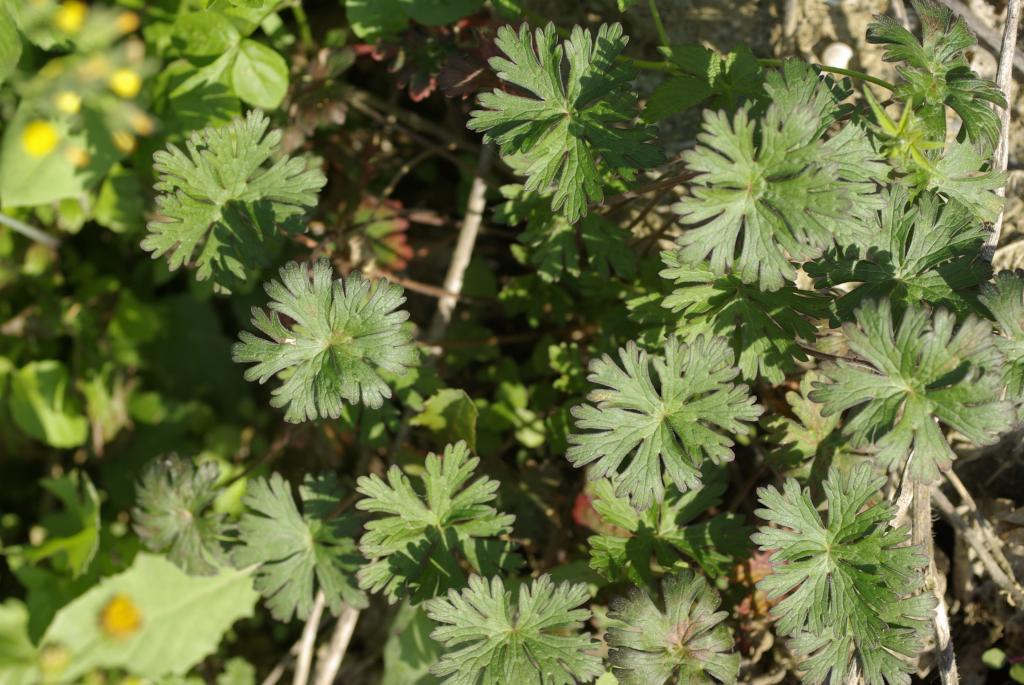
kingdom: Plantae
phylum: Tracheophyta
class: Magnoliopsida
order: Geraniales
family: Geraniaceae
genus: Geranium
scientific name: Geranium carolinianum
